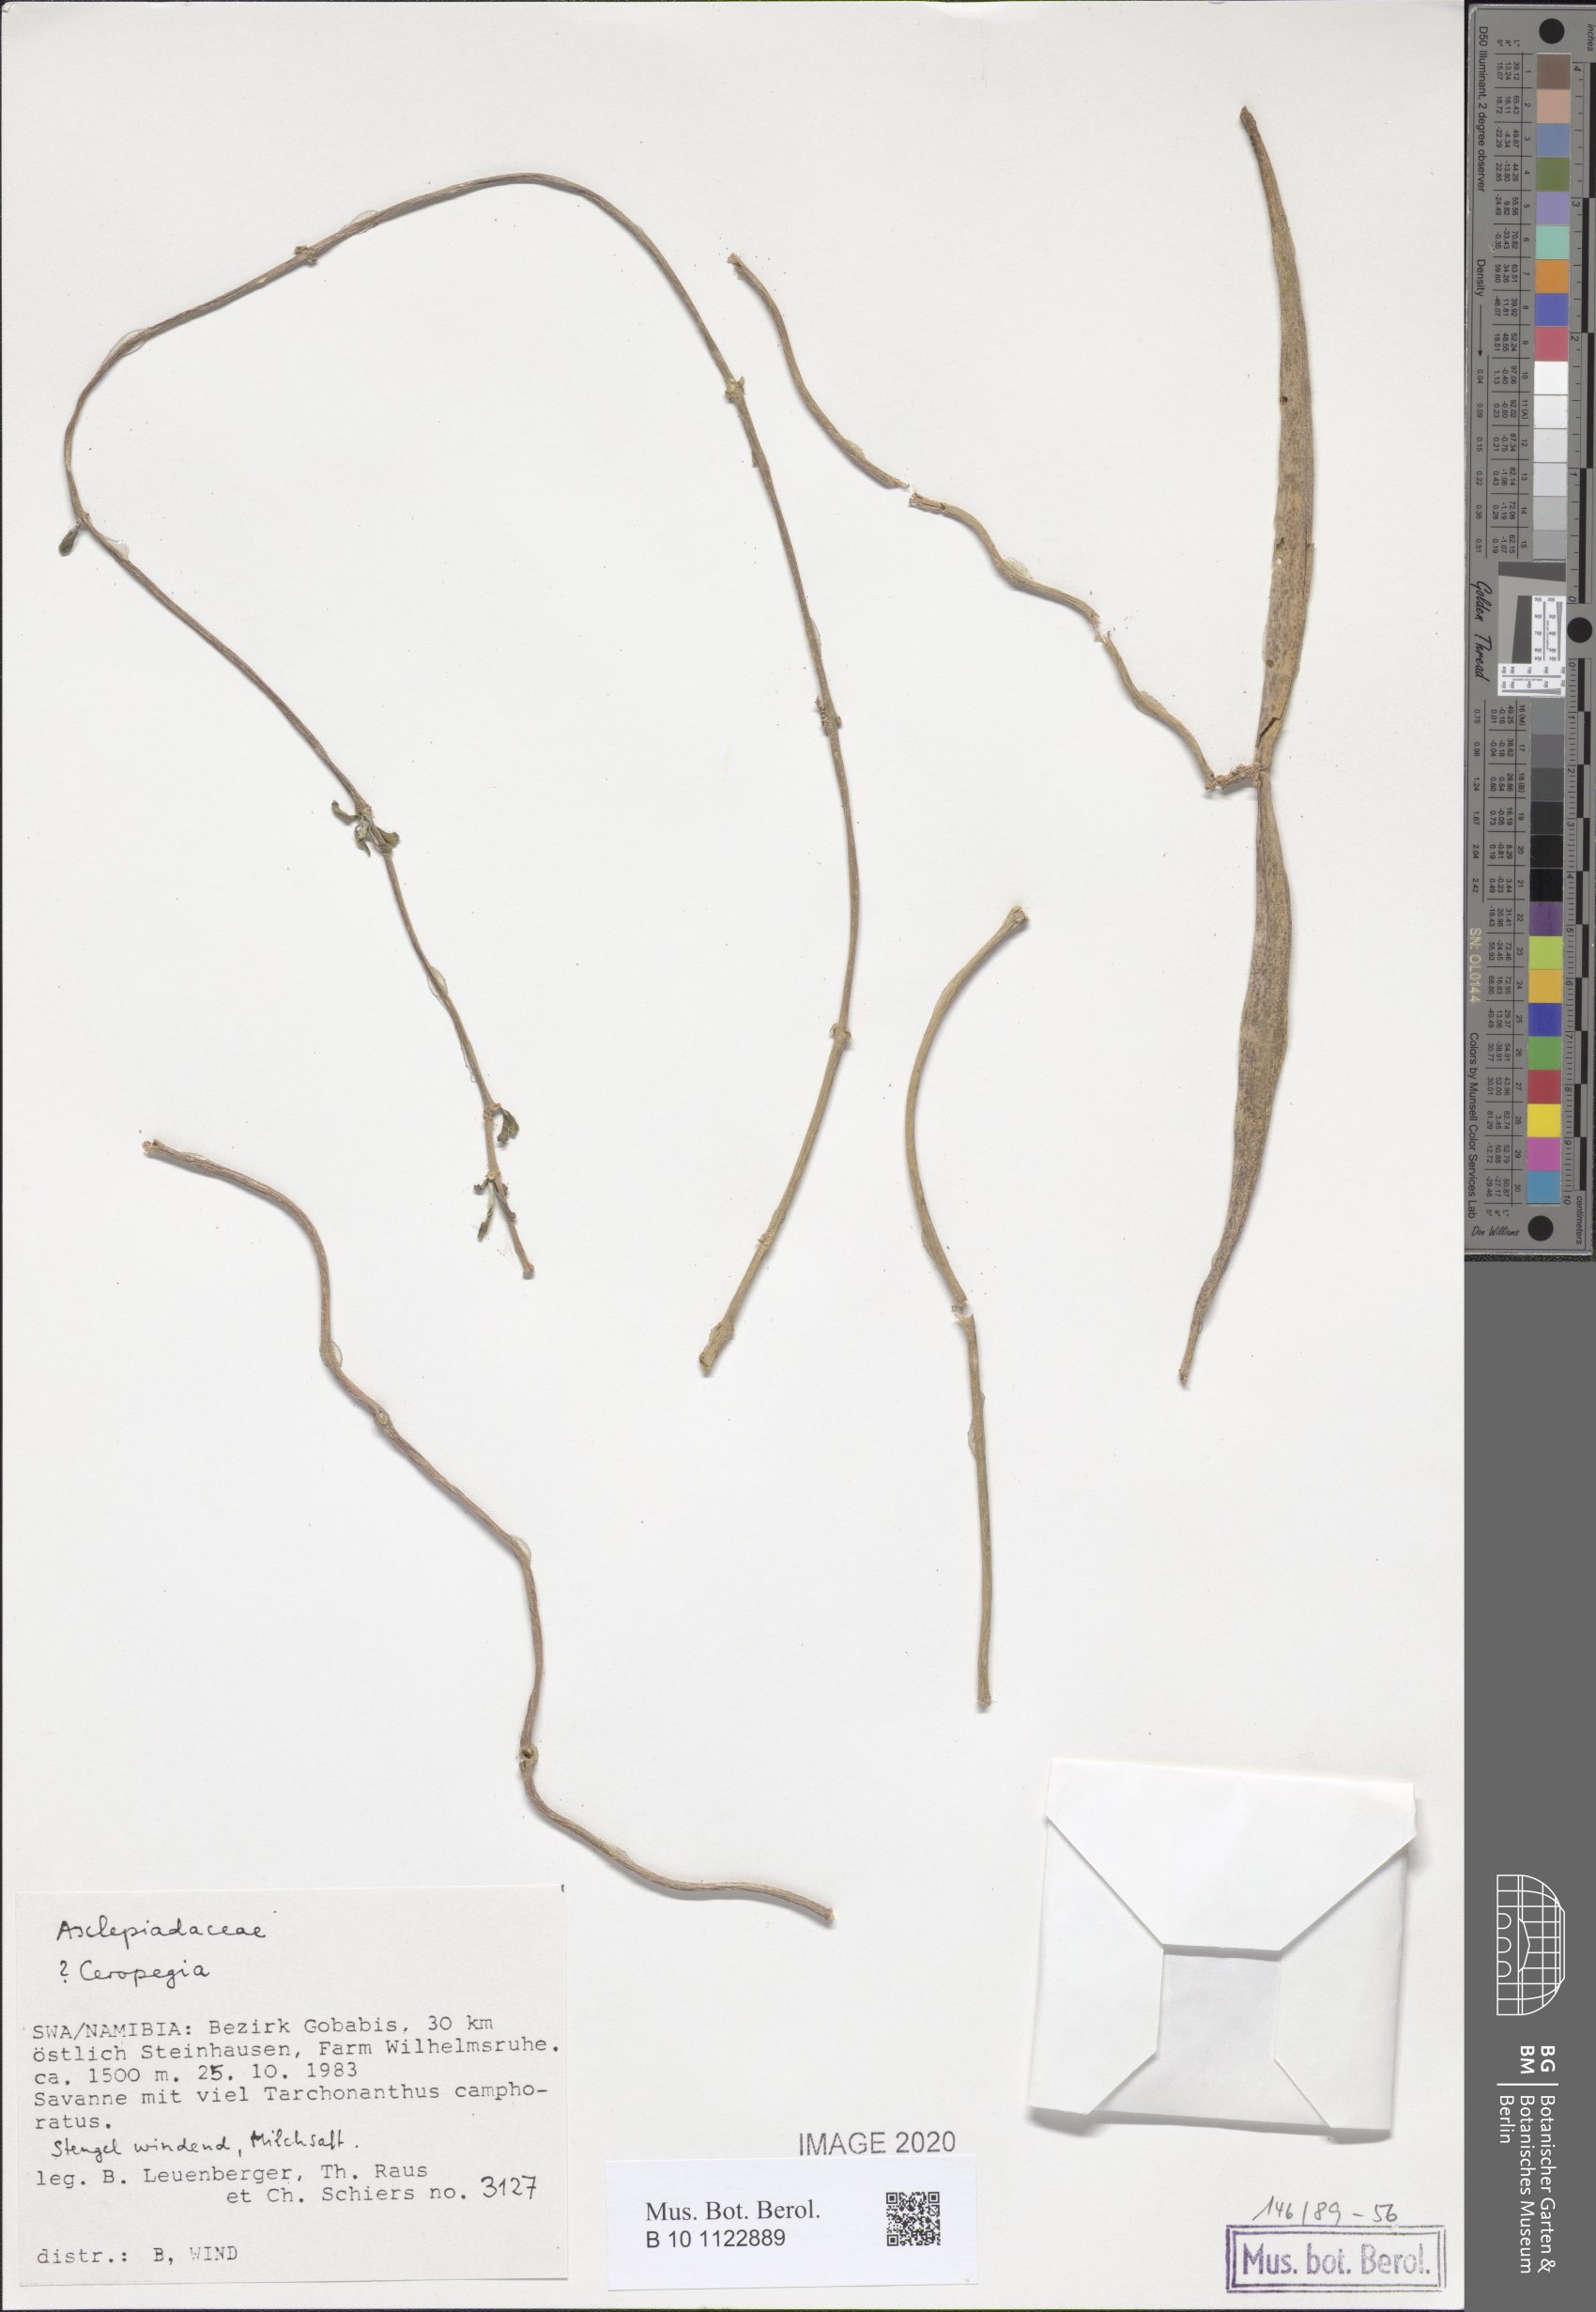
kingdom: Plantae
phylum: Tracheophyta
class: Magnoliopsida
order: Gentianales
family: Apocynaceae
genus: Ceropegia
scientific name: Ceropegia
